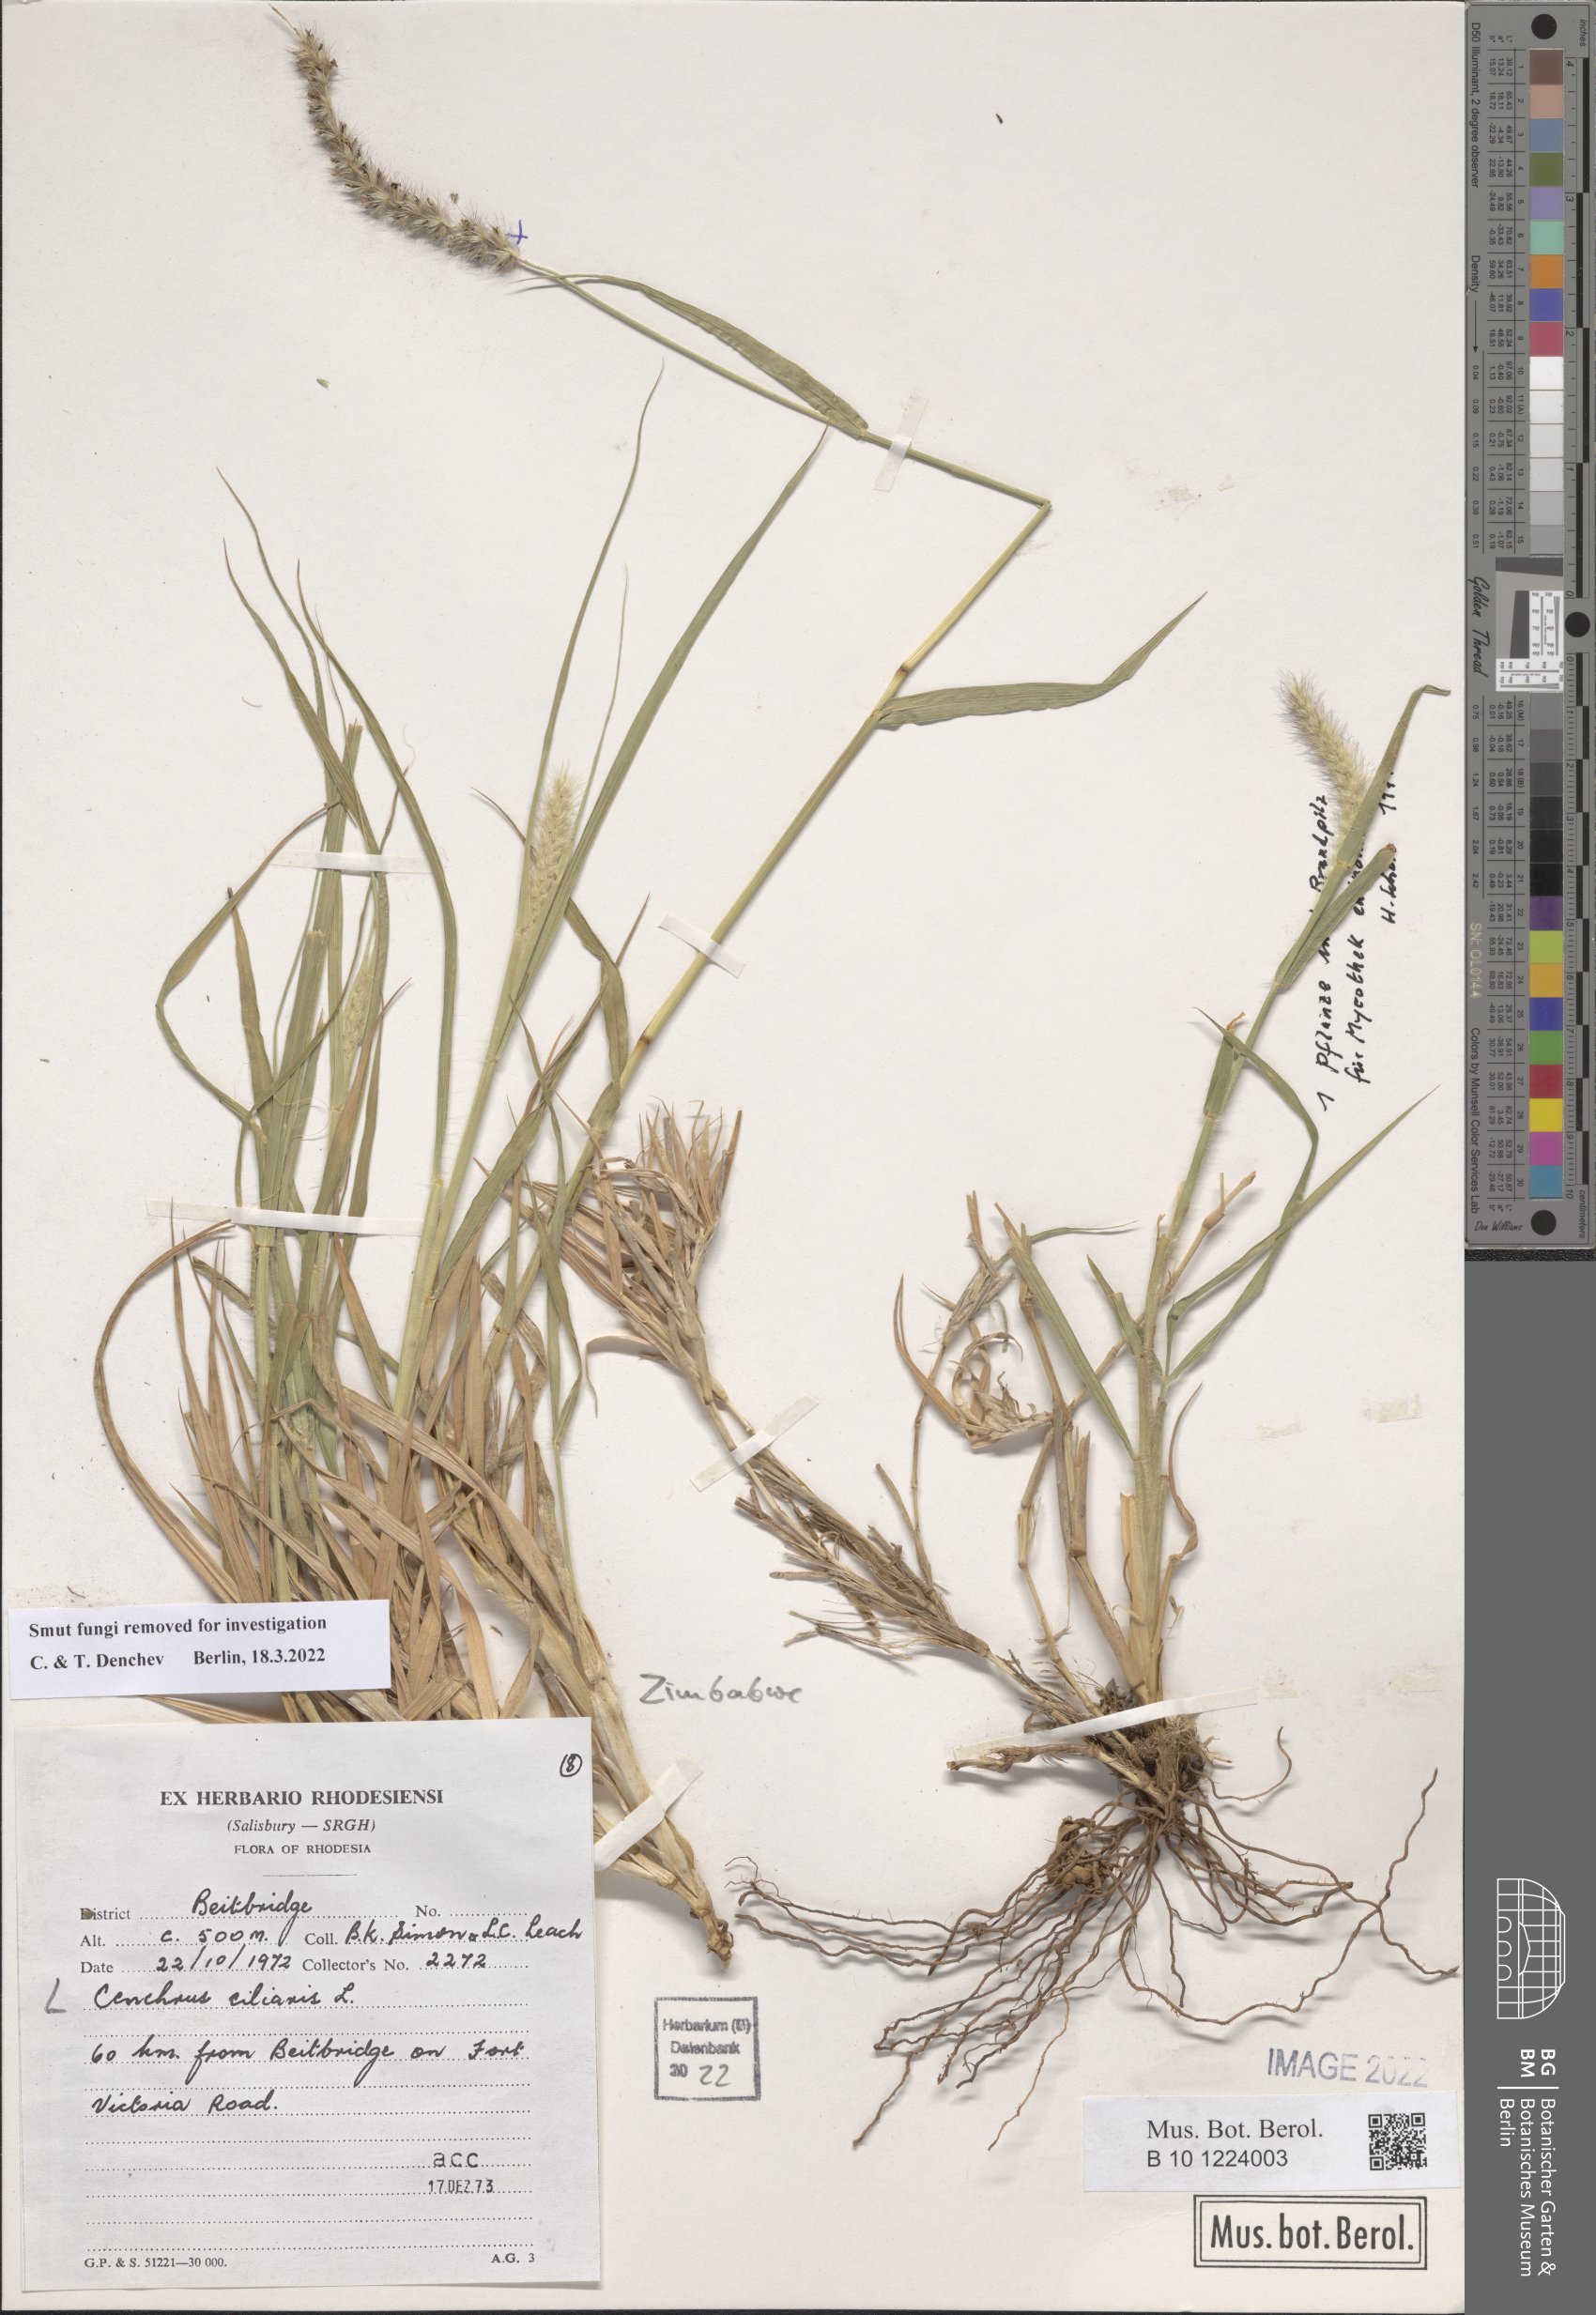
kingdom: Plantae
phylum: Tracheophyta
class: Liliopsida
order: Poales
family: Poaceae
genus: Cenchrus
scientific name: Cenchrus ciliaris
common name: Buffelgrass
